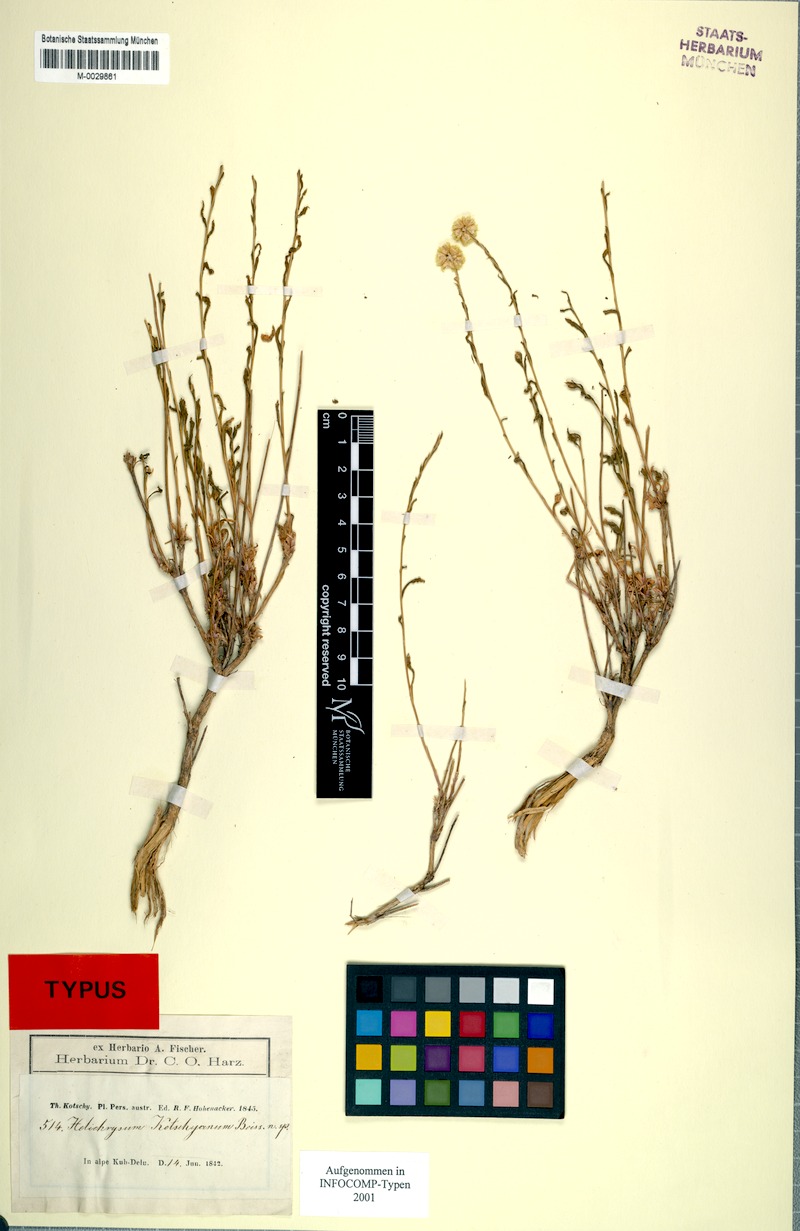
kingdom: Plantae
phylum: Tracheophyta
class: Magnoliopsida
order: Asterales
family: Asteraceae
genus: Helichrysum
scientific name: Helichrysum oligocephalum
